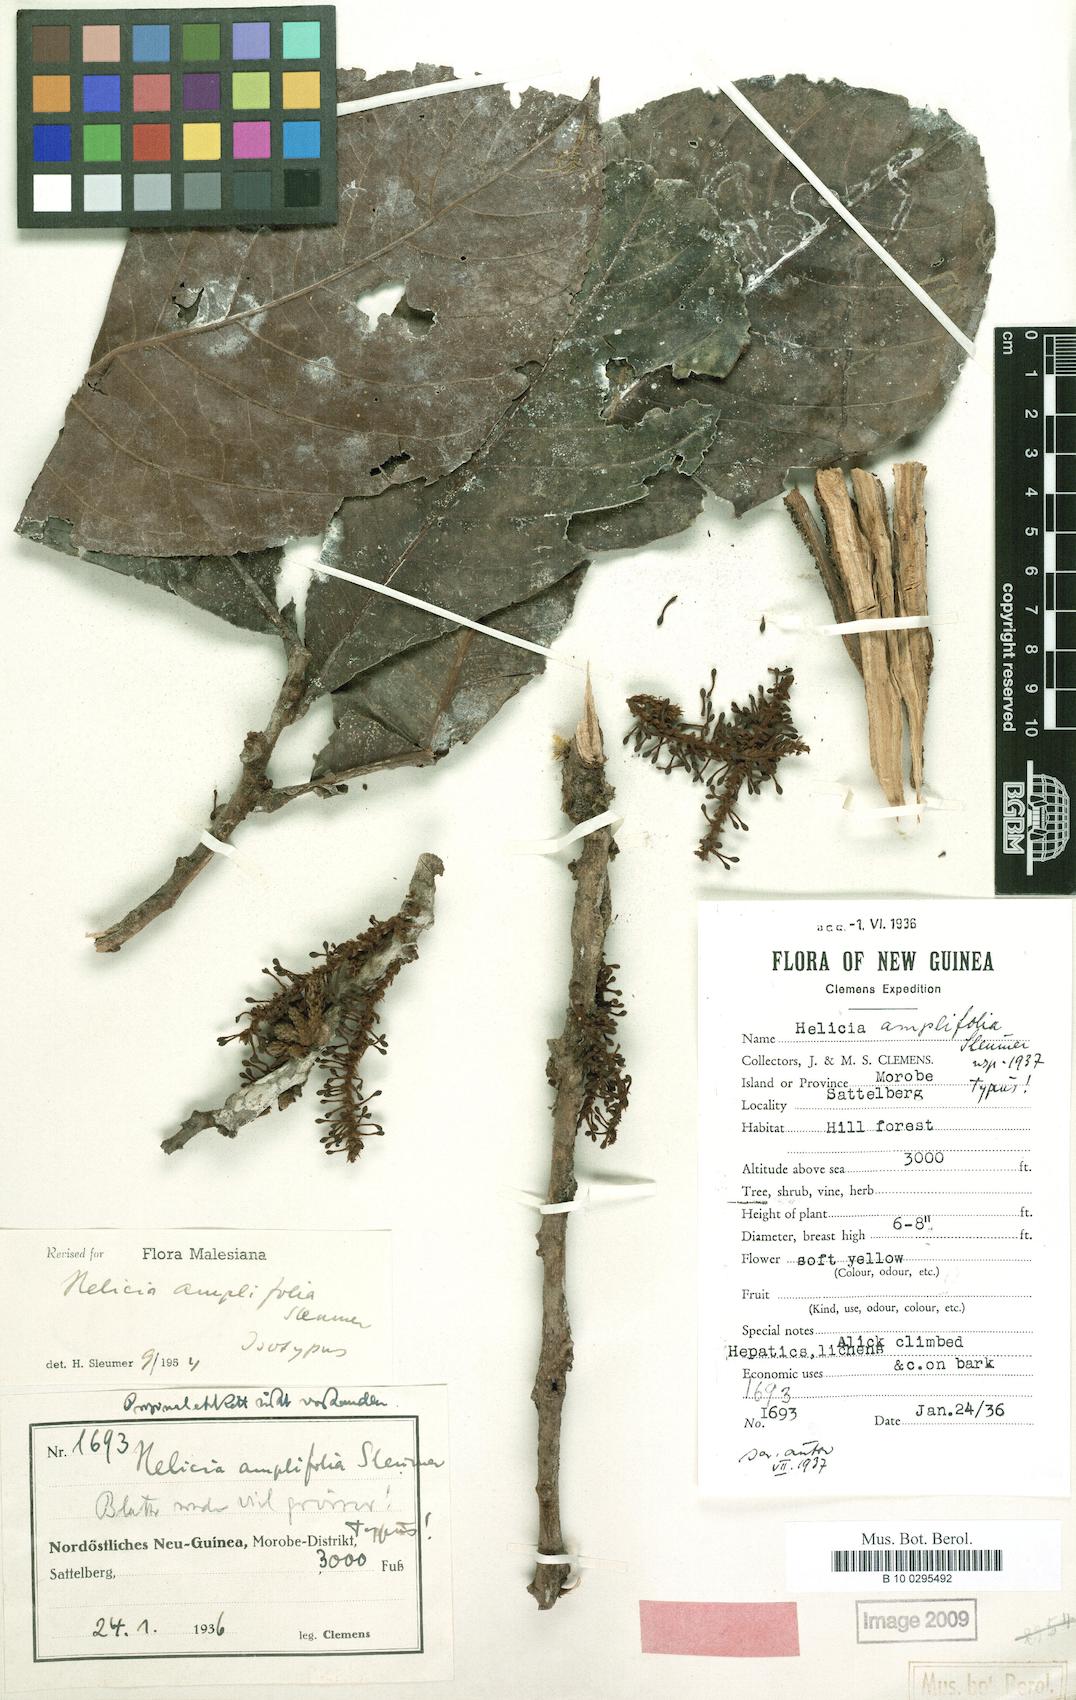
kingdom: Plantae
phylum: Tracheophyta
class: Magnoliopsida
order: Proteales
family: Proteaceae
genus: Helicia
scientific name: Helicia amplifolia
